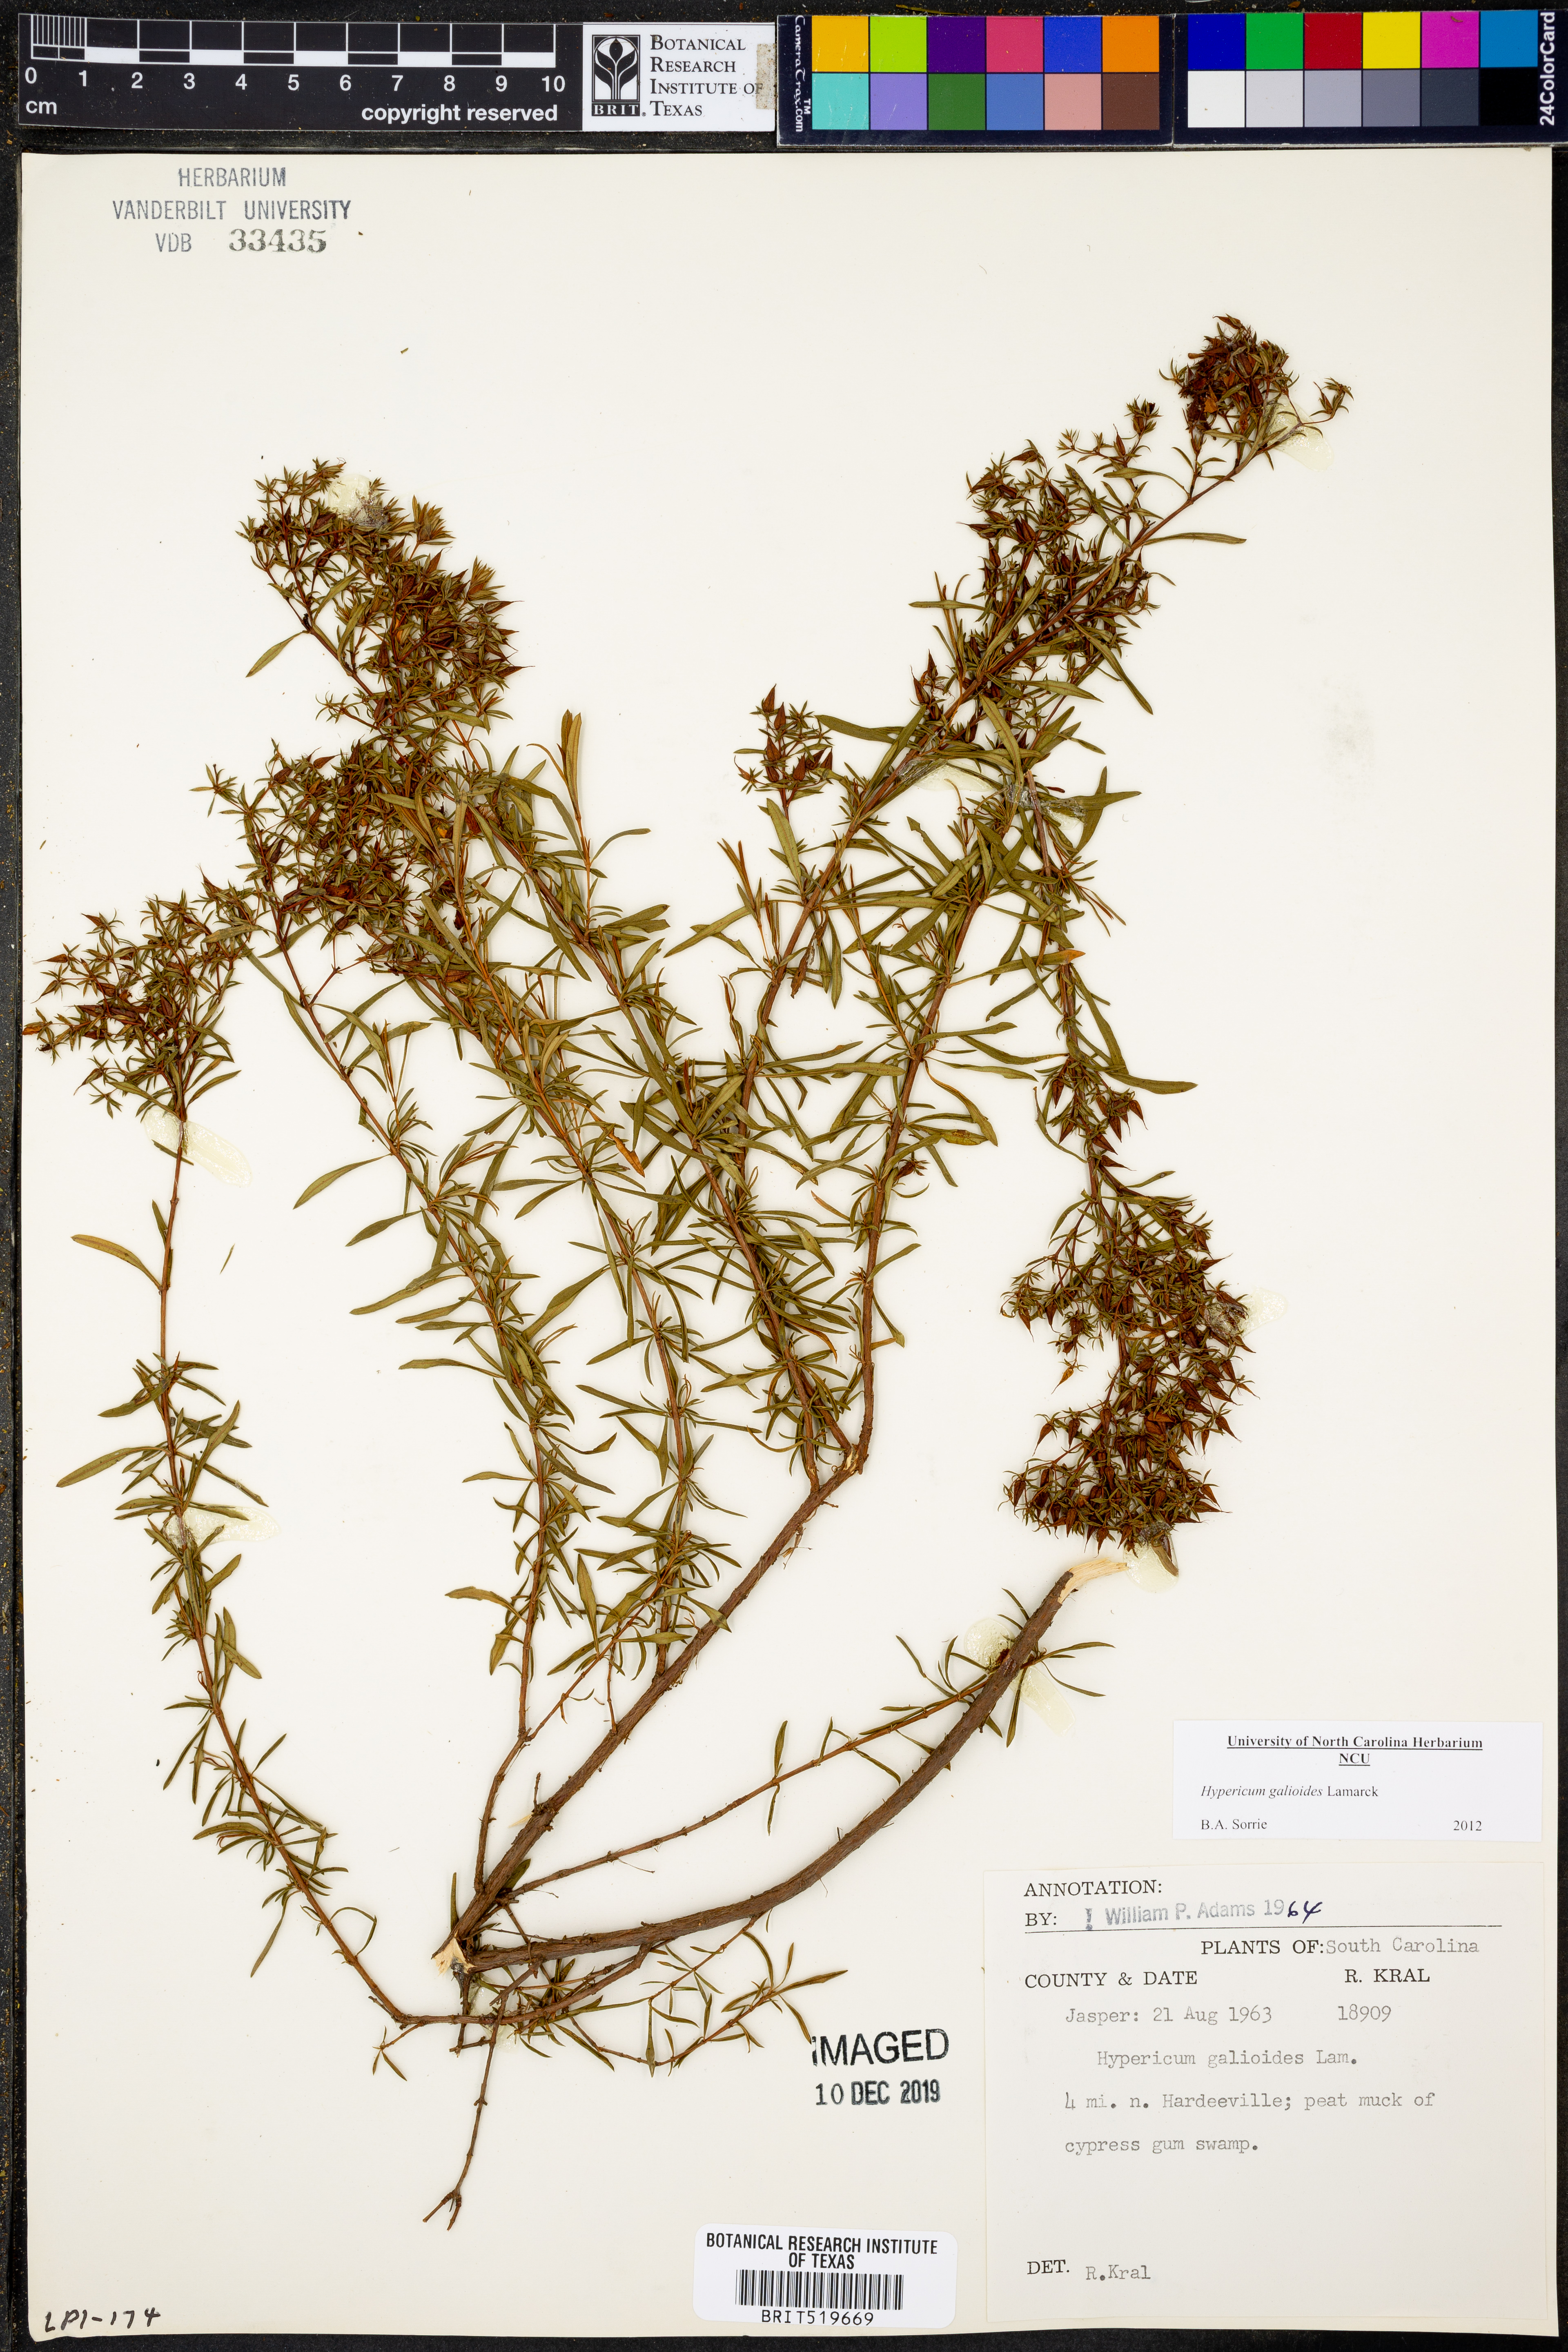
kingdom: Plantae
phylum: Tracheophyta
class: Magnoliopsida
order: Malpighiales
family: Hypericaceae
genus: Hypericum
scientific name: Hypericum galioides
